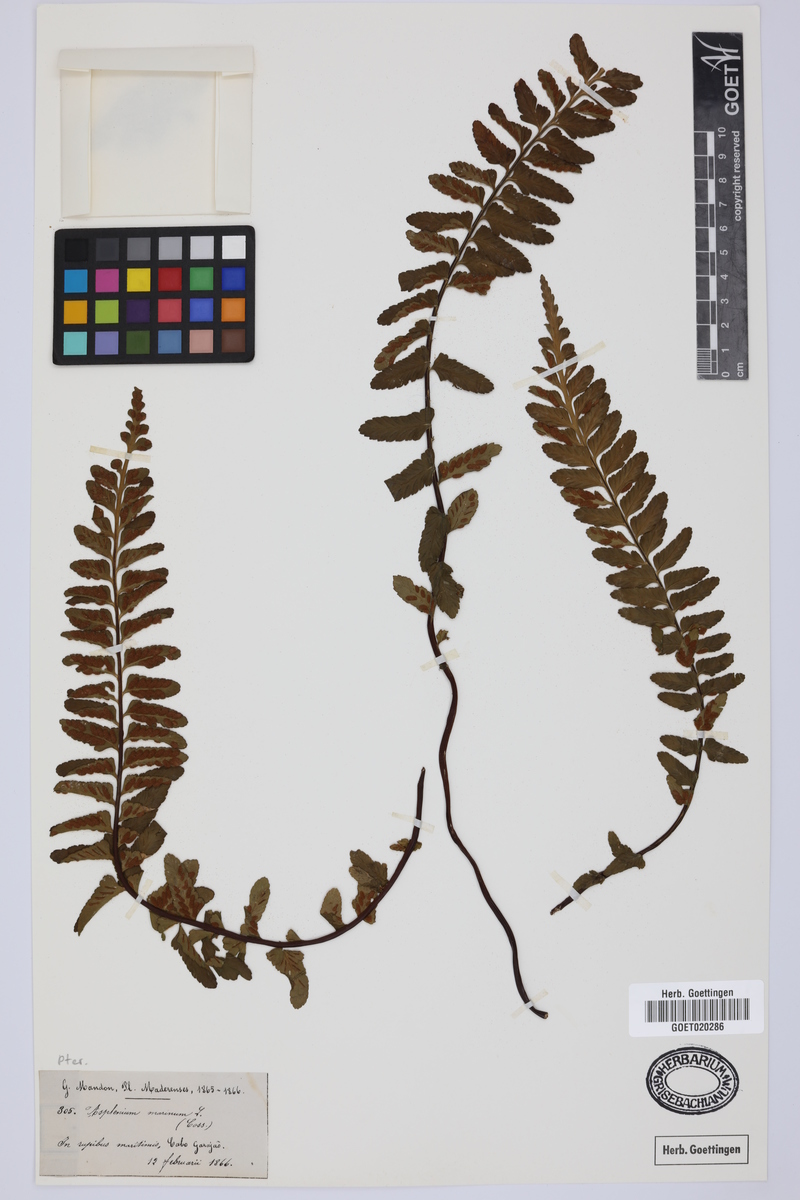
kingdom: Plantae
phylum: Tracheophyta
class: Polypodiopsida
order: Polypodiales
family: Aspleniaceae
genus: Asplenium
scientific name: Asplenium marinum
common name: Sea spleenwort
